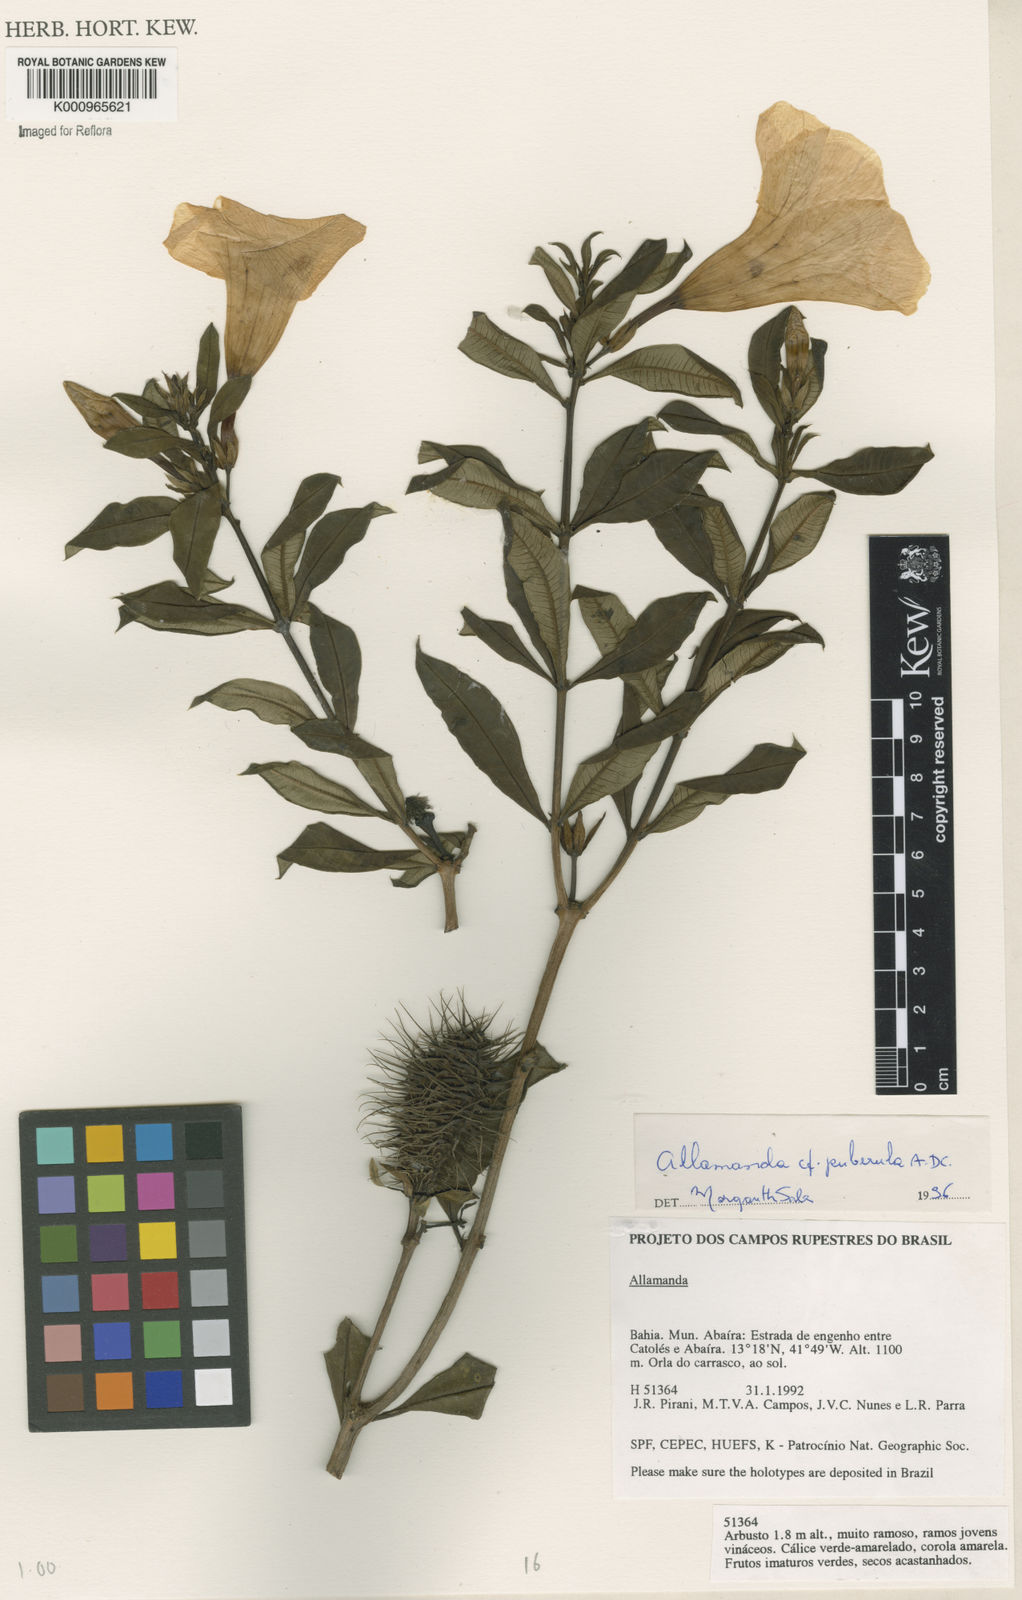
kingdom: Plantae
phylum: Tracheophyta
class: Magnoliopsida
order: Gentianales
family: Apocynaceae
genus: Allamanda
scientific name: Allamanda puberula
